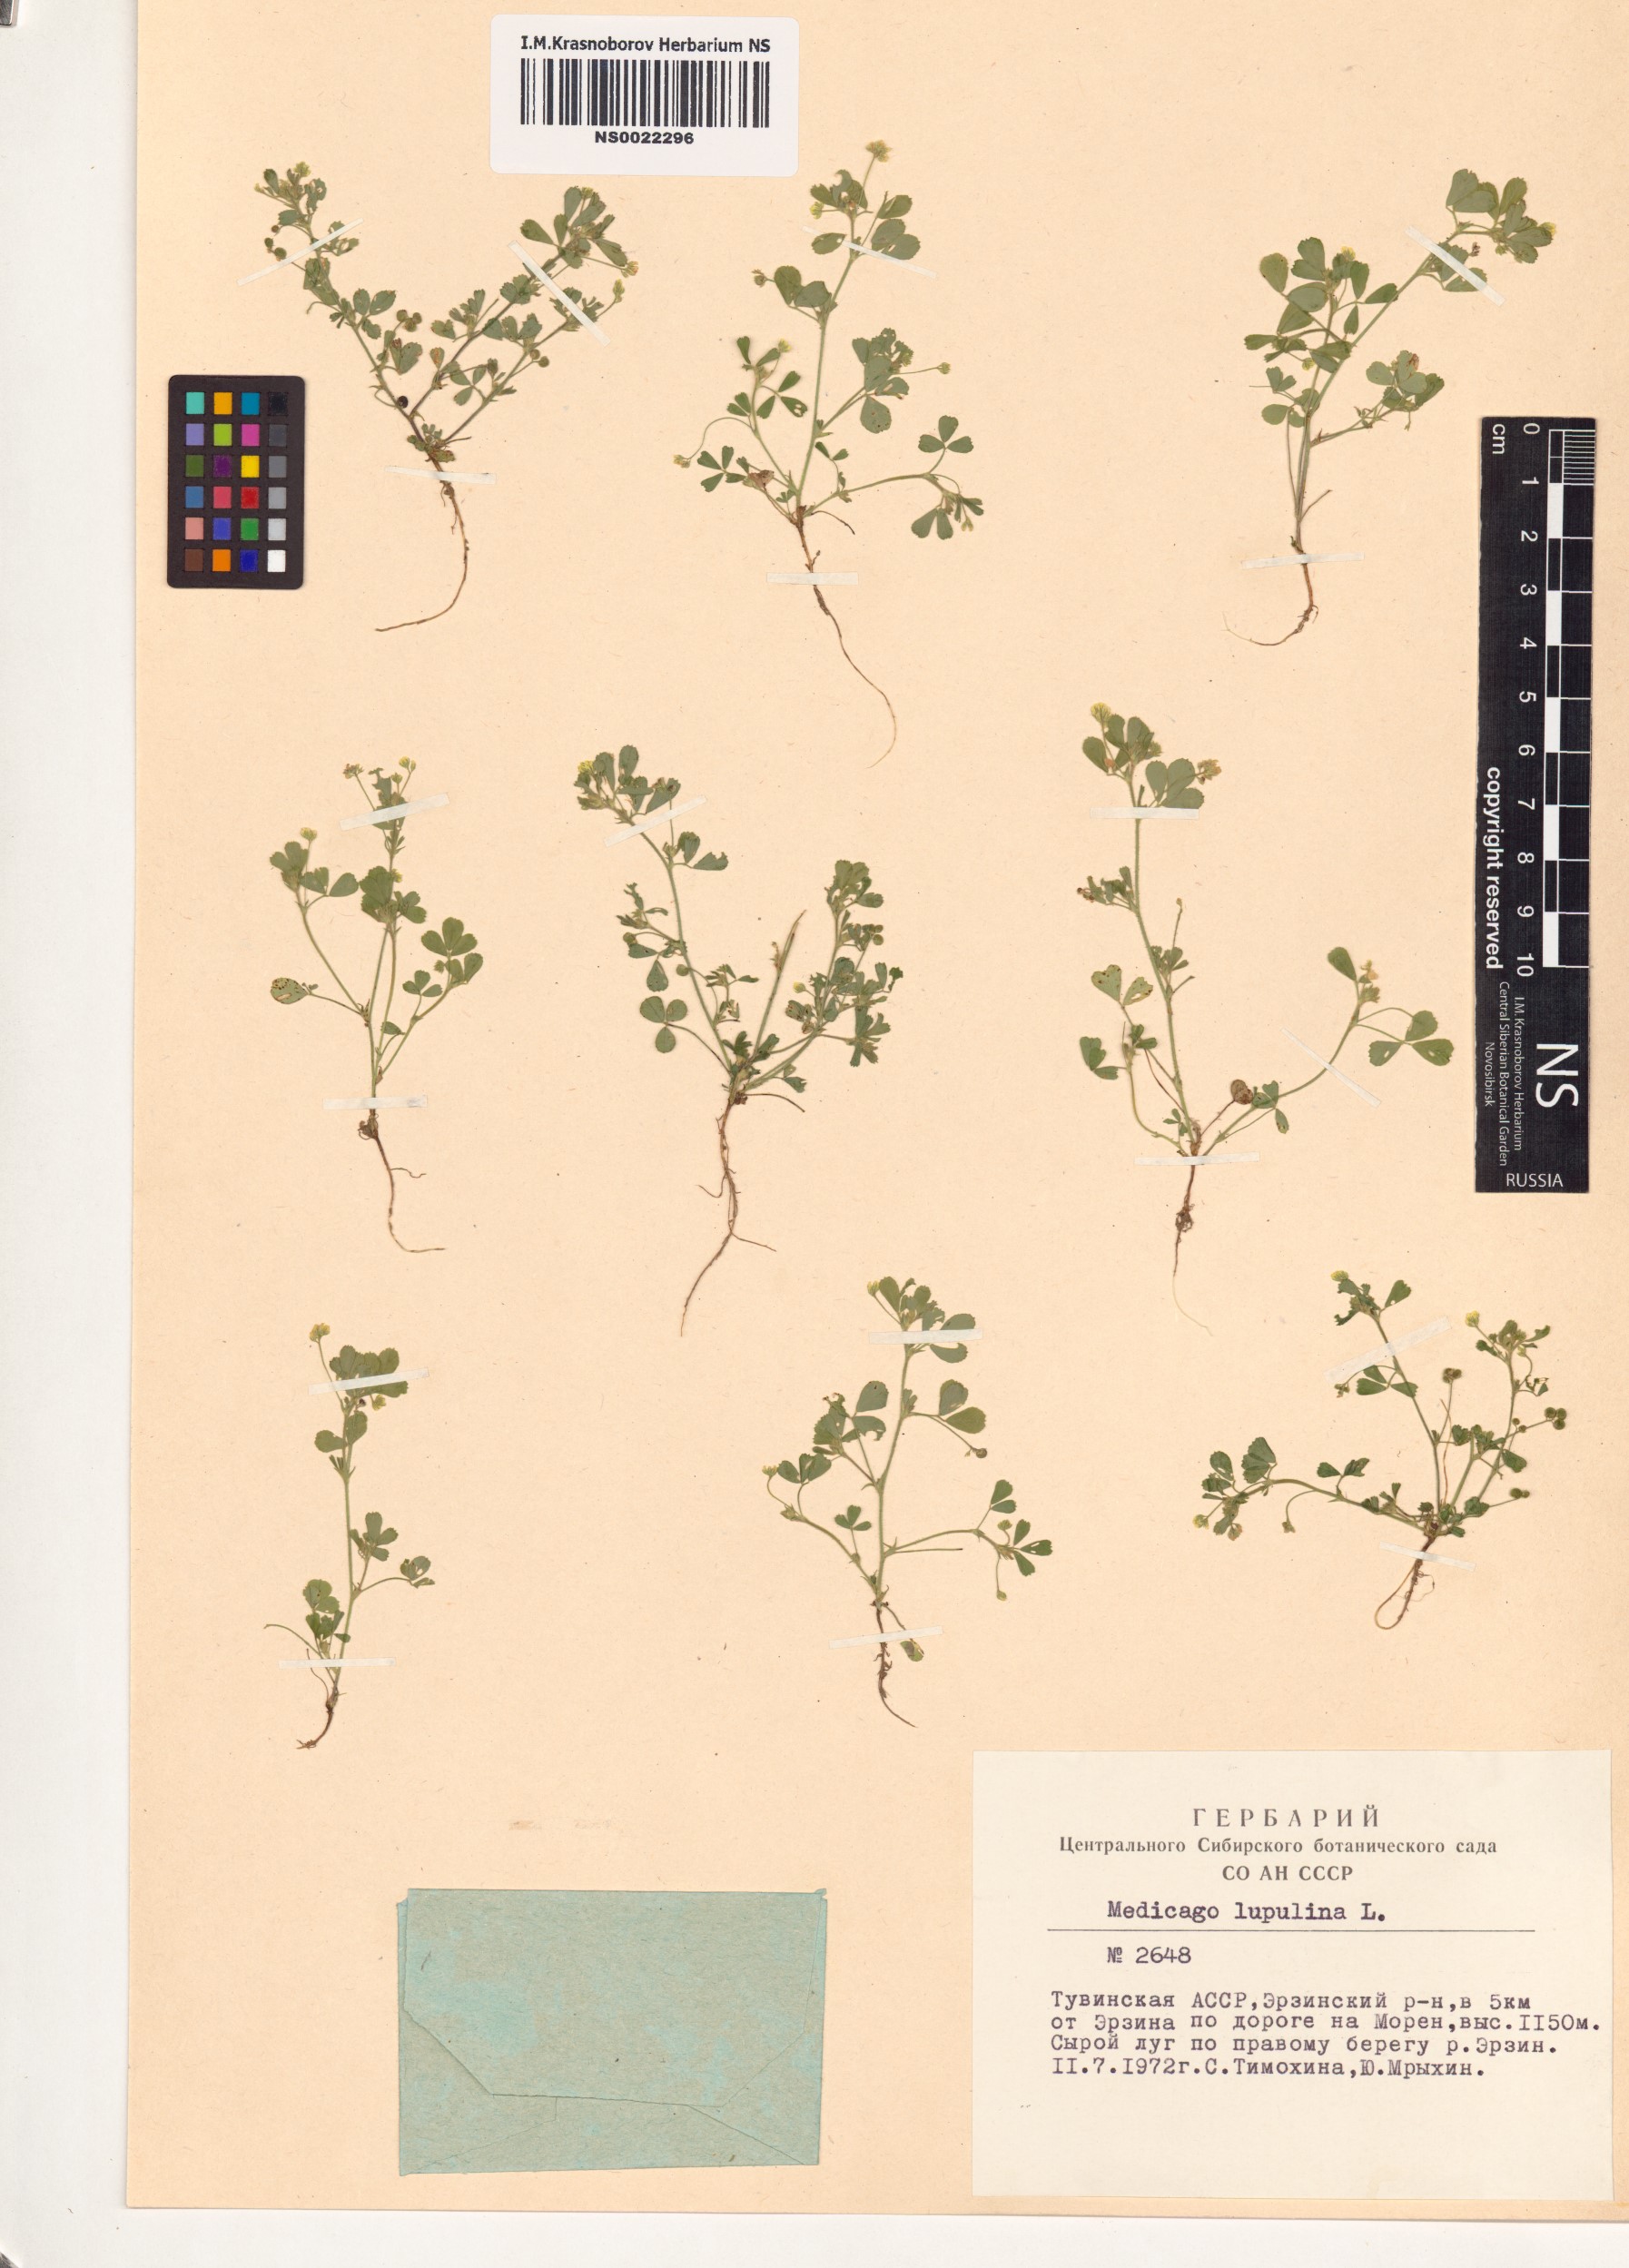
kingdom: Plantae
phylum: Tracheophyta
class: Magnoliopsida
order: Fabales
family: Fabaceae
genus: Medicago
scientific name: Medicago lupulina
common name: Black medick
